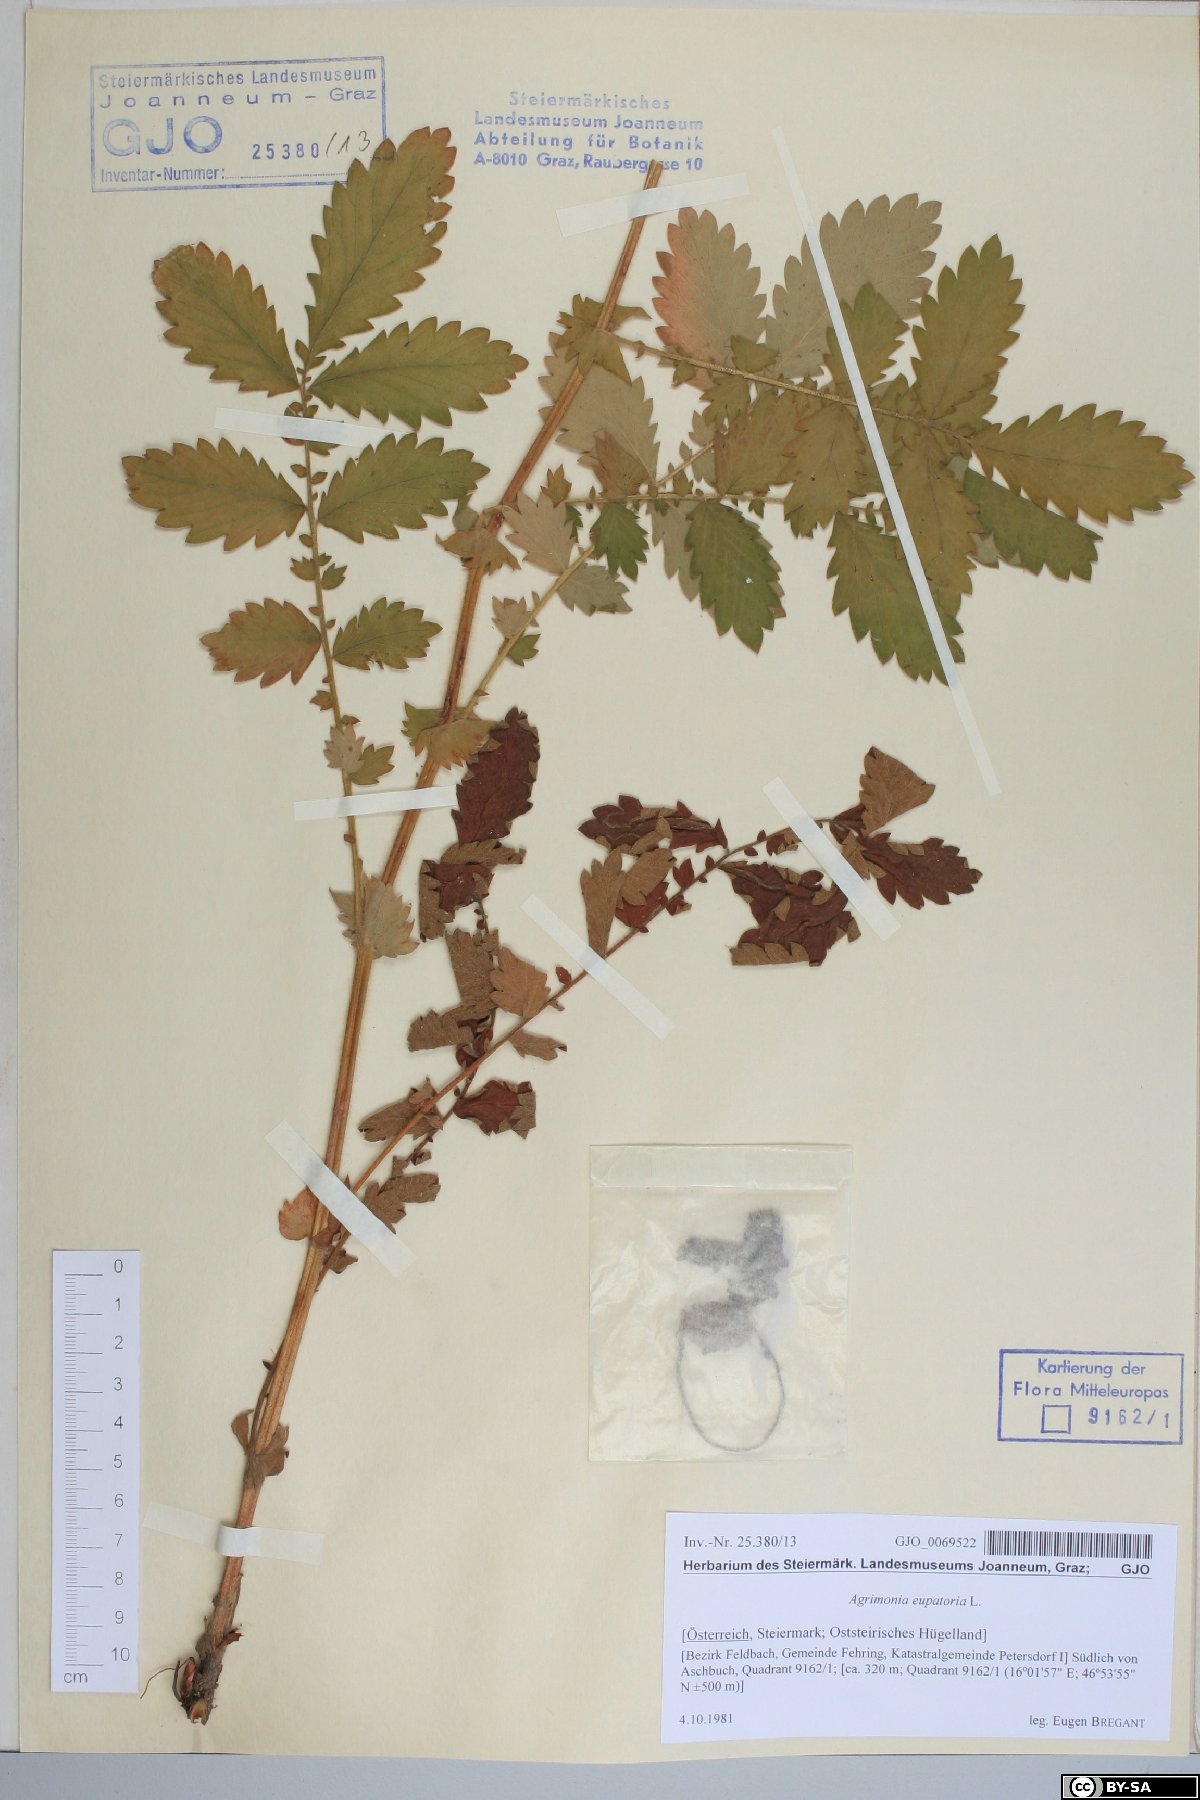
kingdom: Plantae
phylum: Tracheophyta
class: Magnoliopsida
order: Rosales
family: Rosaceae
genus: Agrimonia
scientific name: Agrimonia eupatoria
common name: Agrimony
